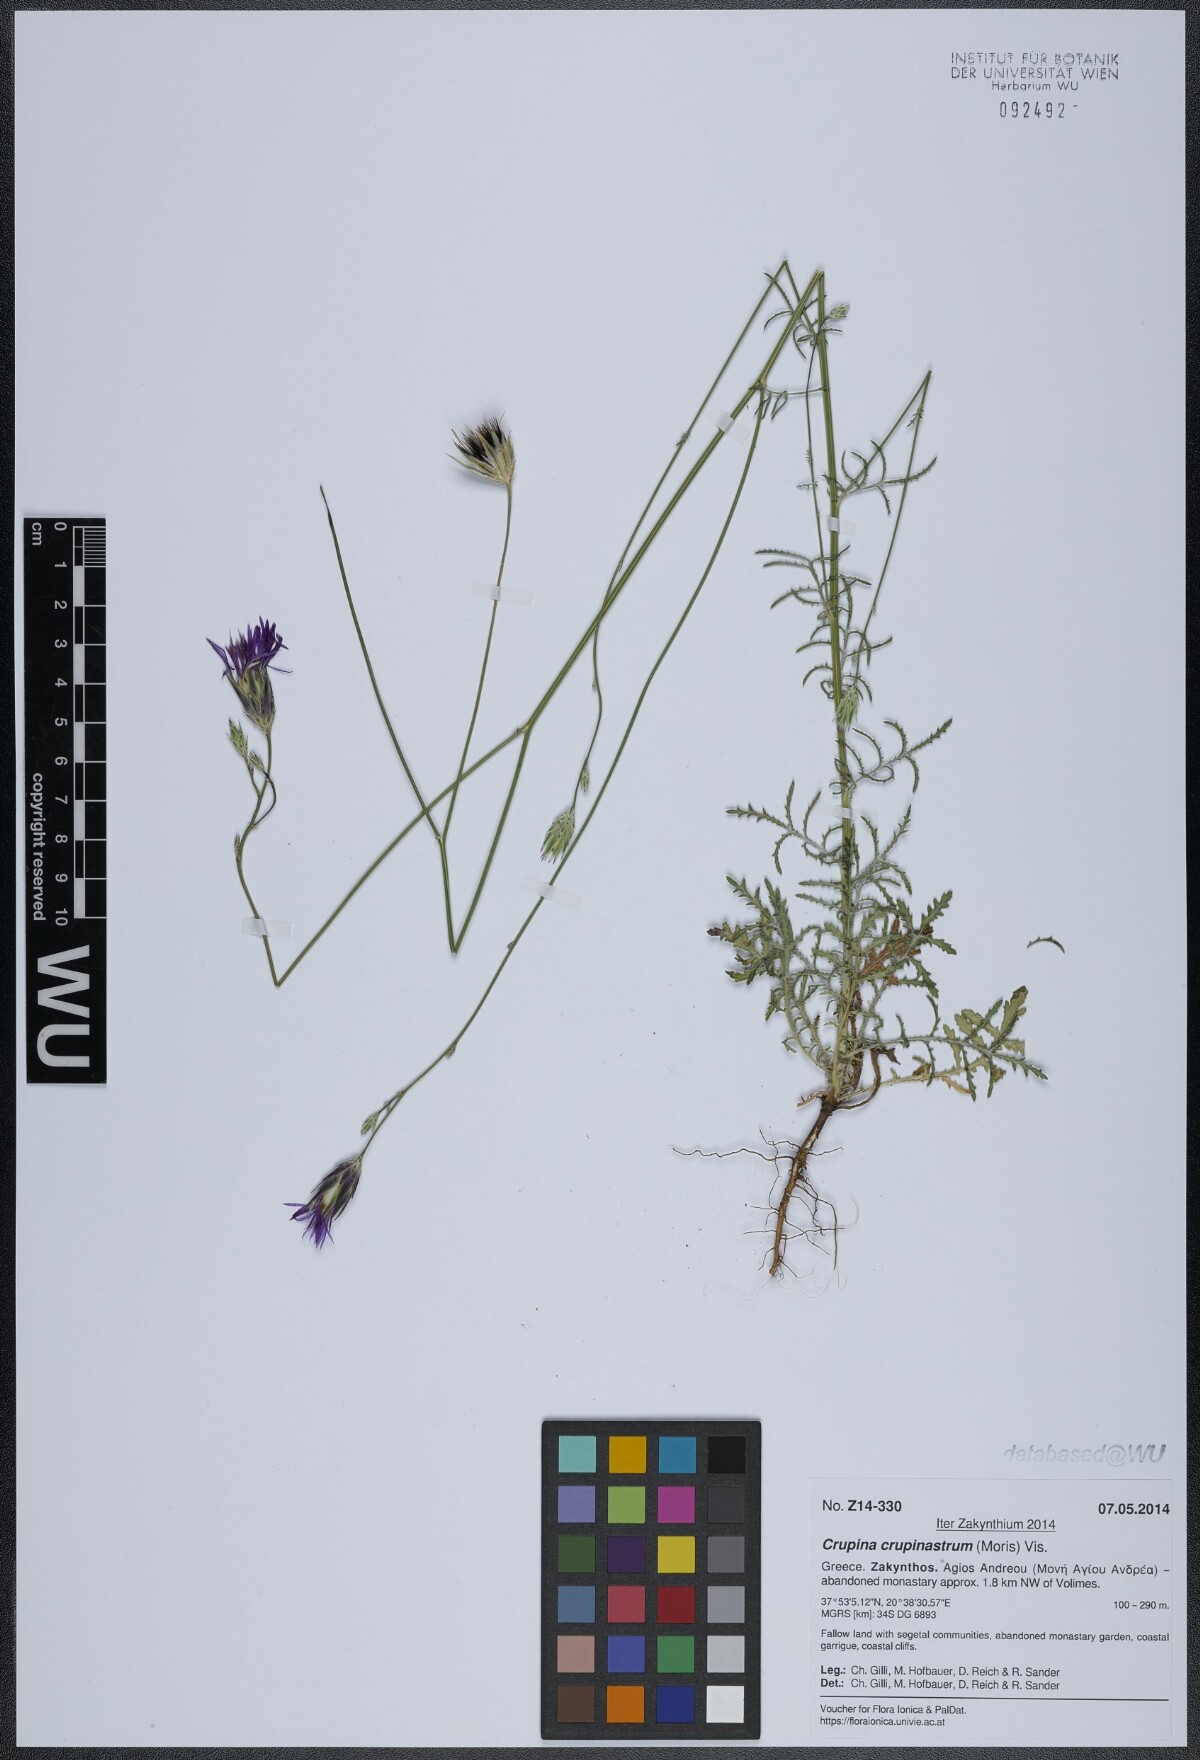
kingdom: Plantae
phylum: Tracheophyta
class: Magnoliopsida
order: Asterales
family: Asteraceae
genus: Crupina
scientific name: Crupina crupinastrum
